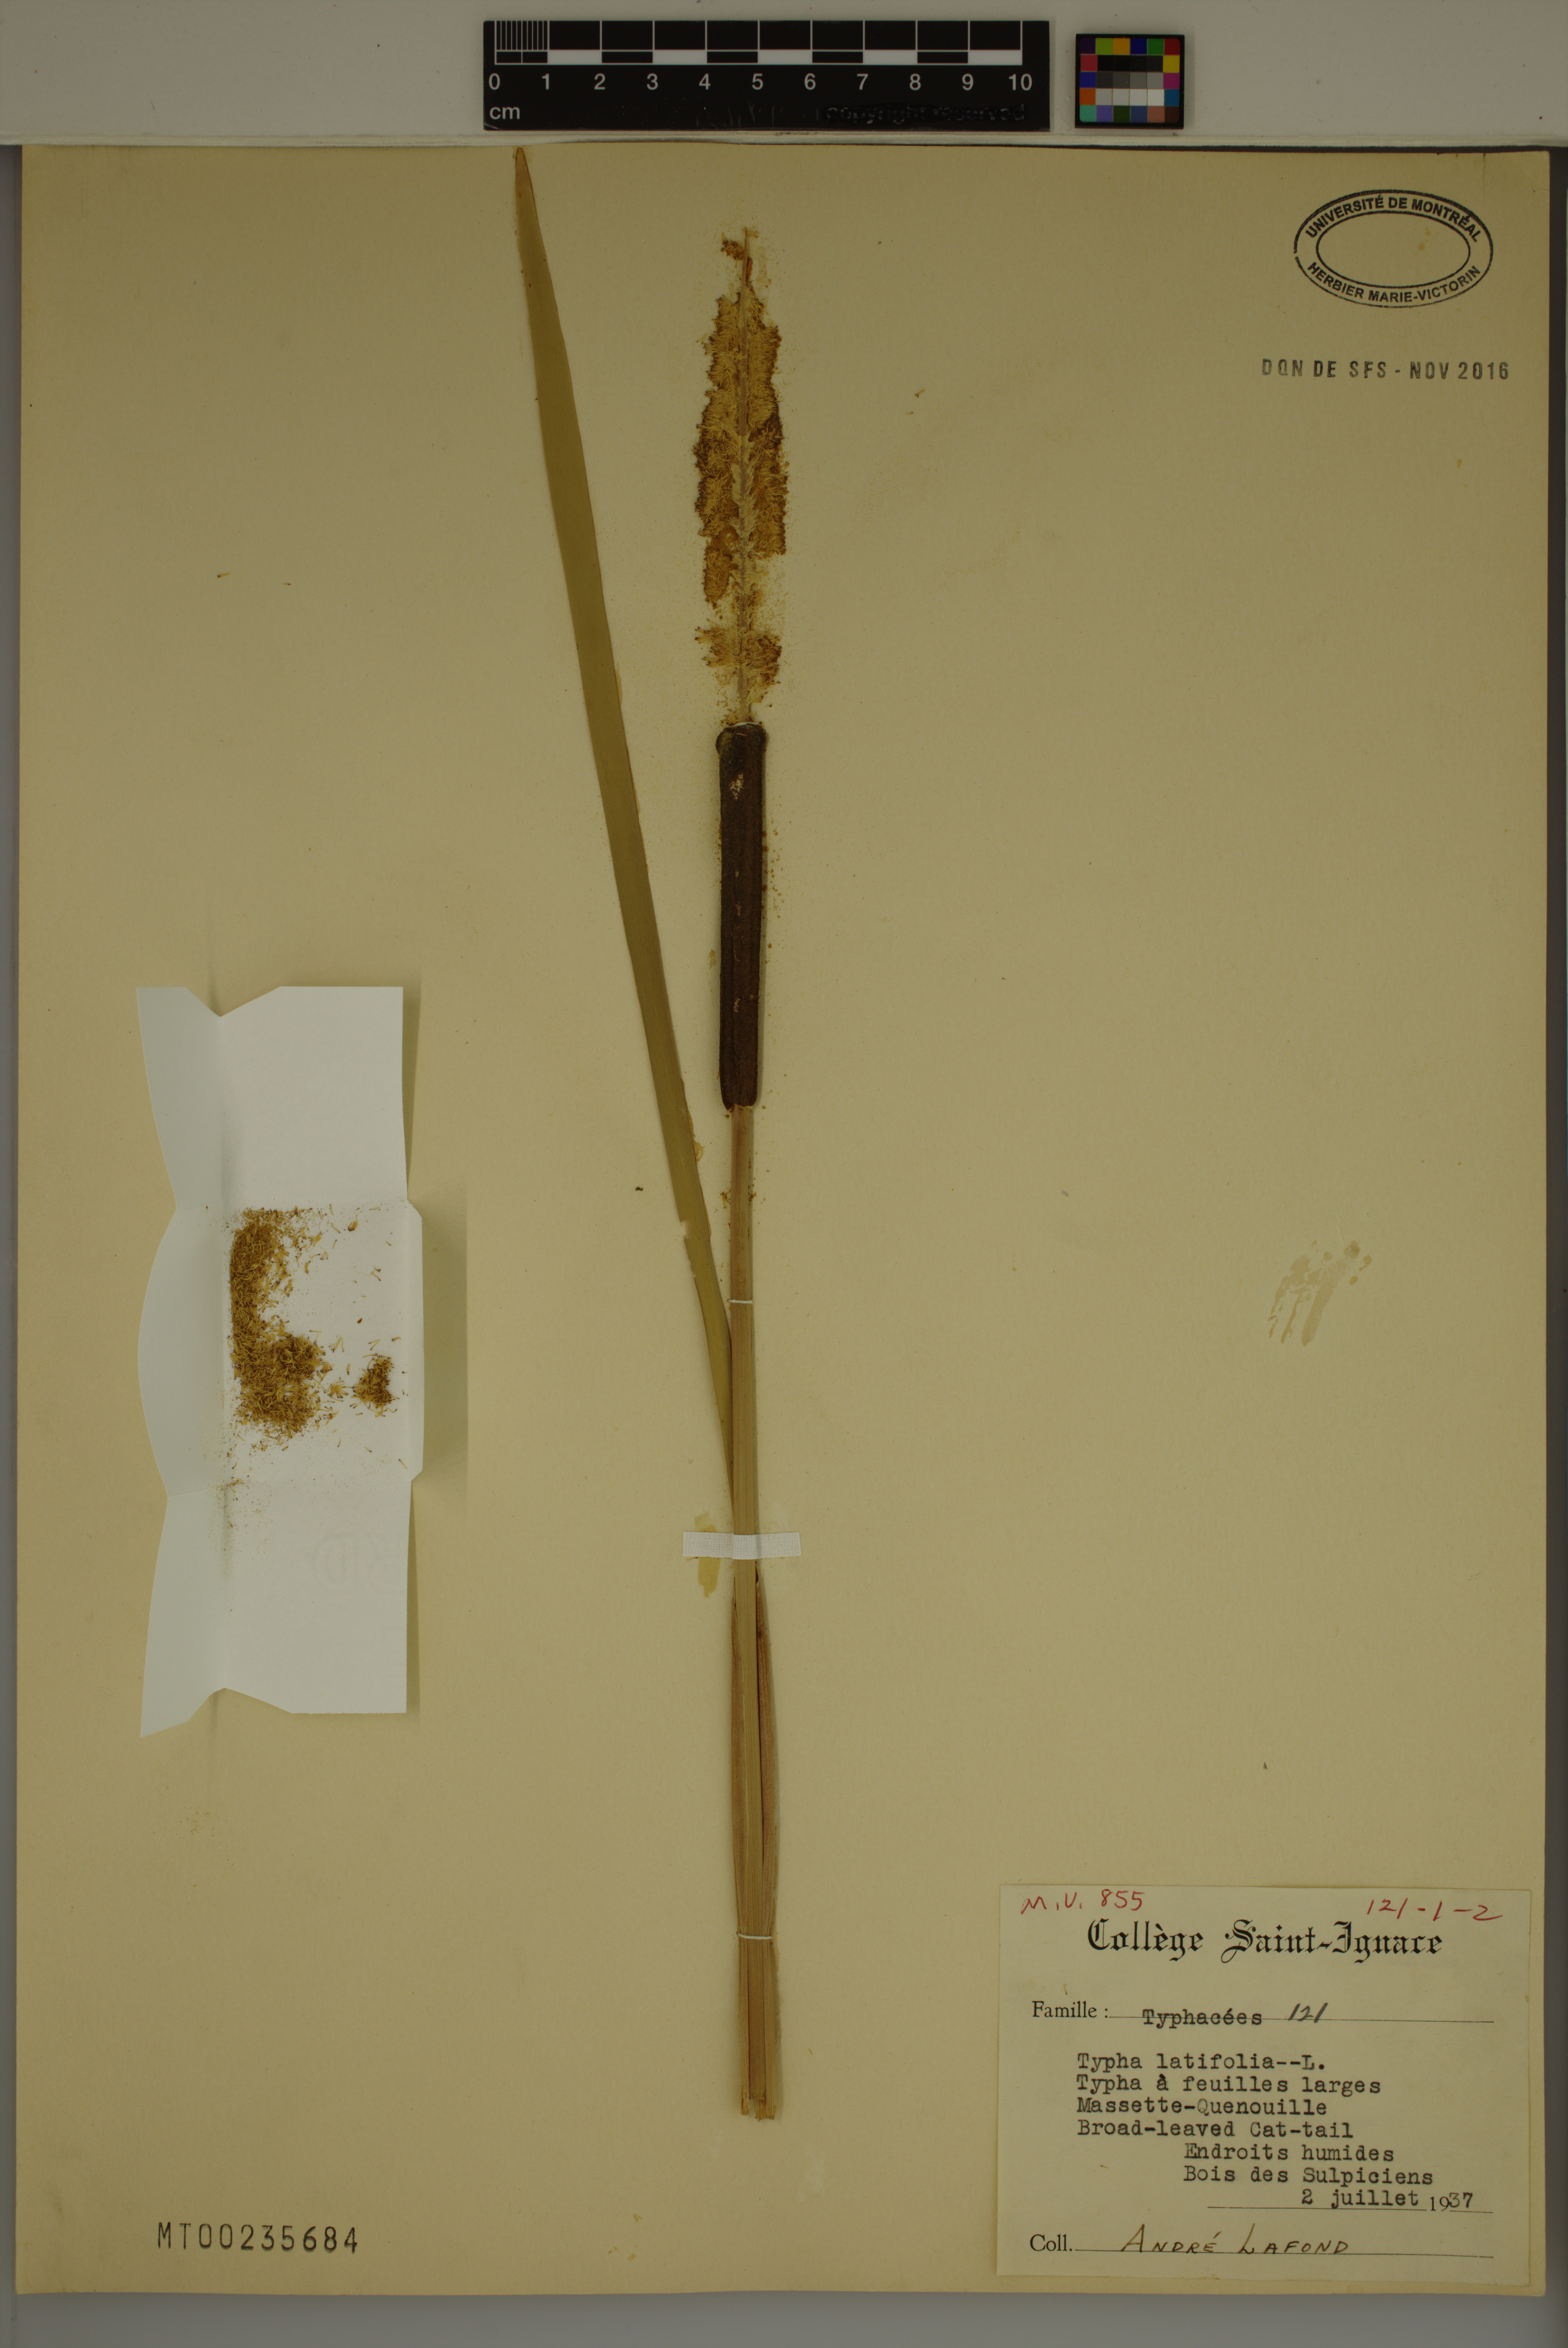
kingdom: Plantae
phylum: Tracheophyta
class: Liliopsida
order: Poales
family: Typhaceae
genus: Typha
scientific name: Typha latifolia
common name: Broadleaf cattail
